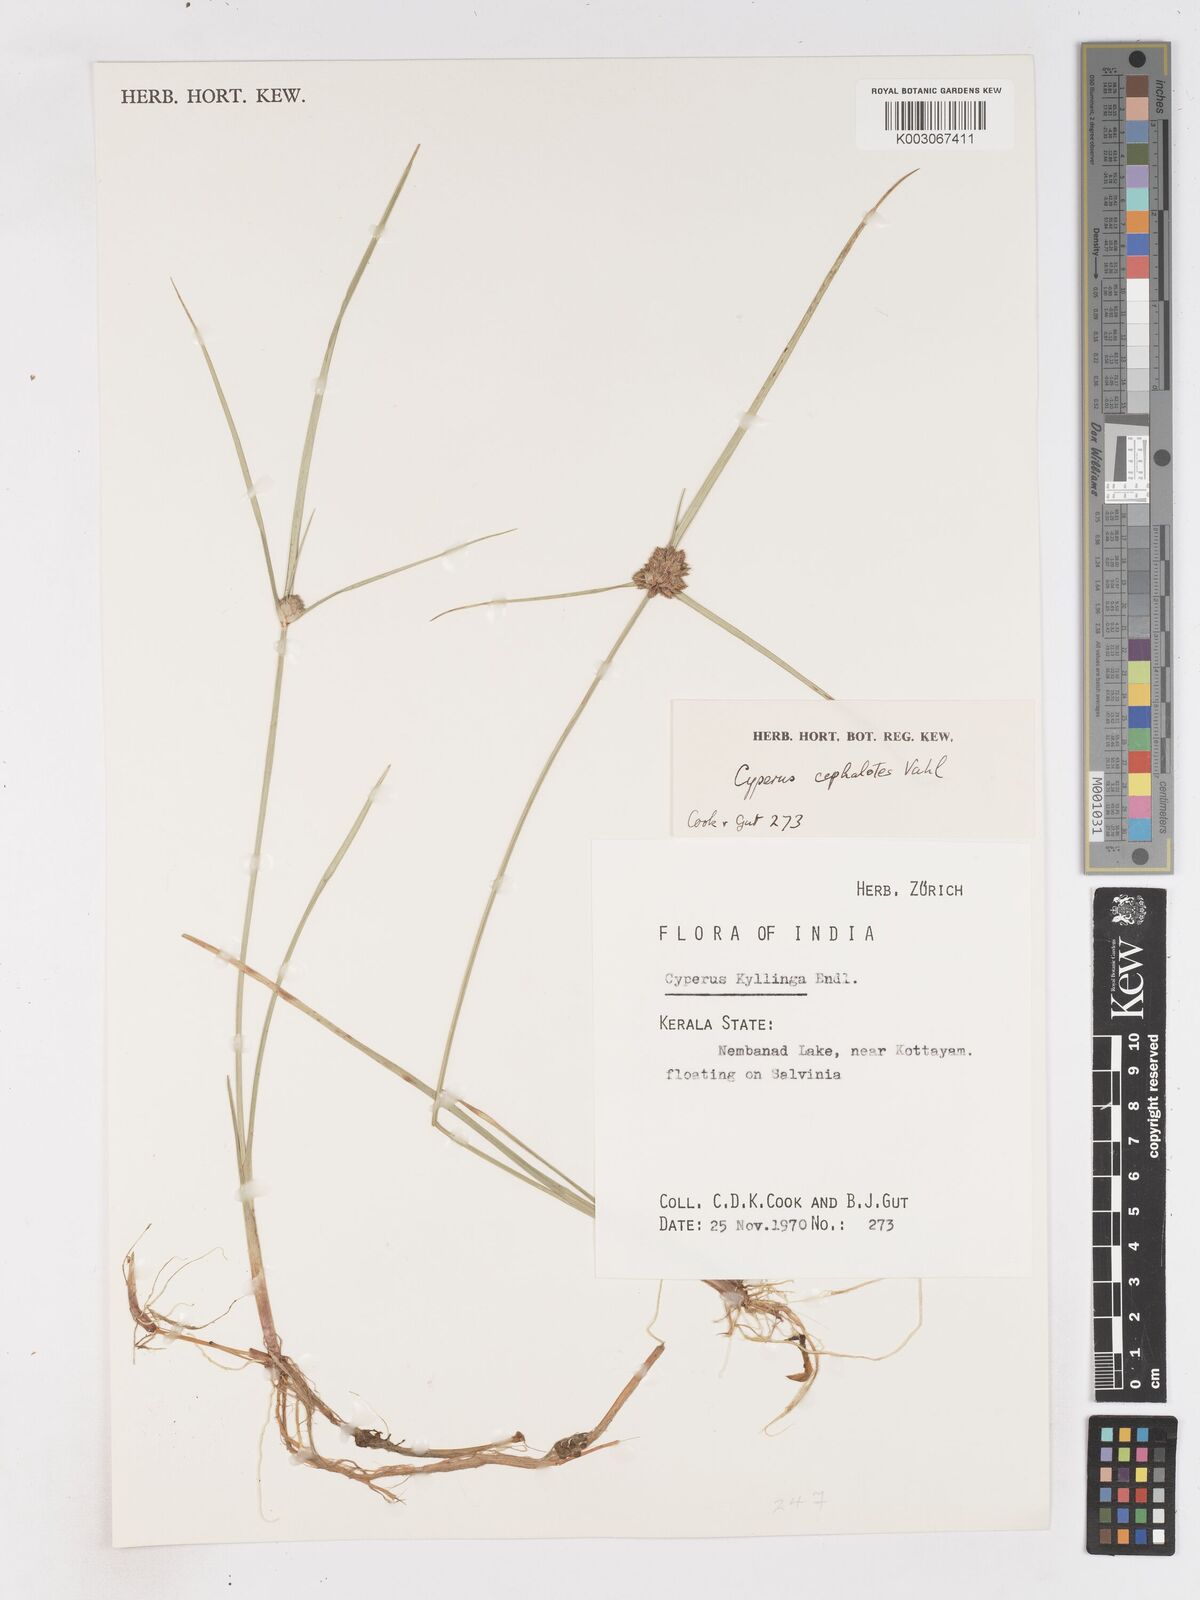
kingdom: Plantae
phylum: Tracheophyta
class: Liliopsida
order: Poales
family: Cyperaceae
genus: Cyperus
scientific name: Cyperus cephalotes
